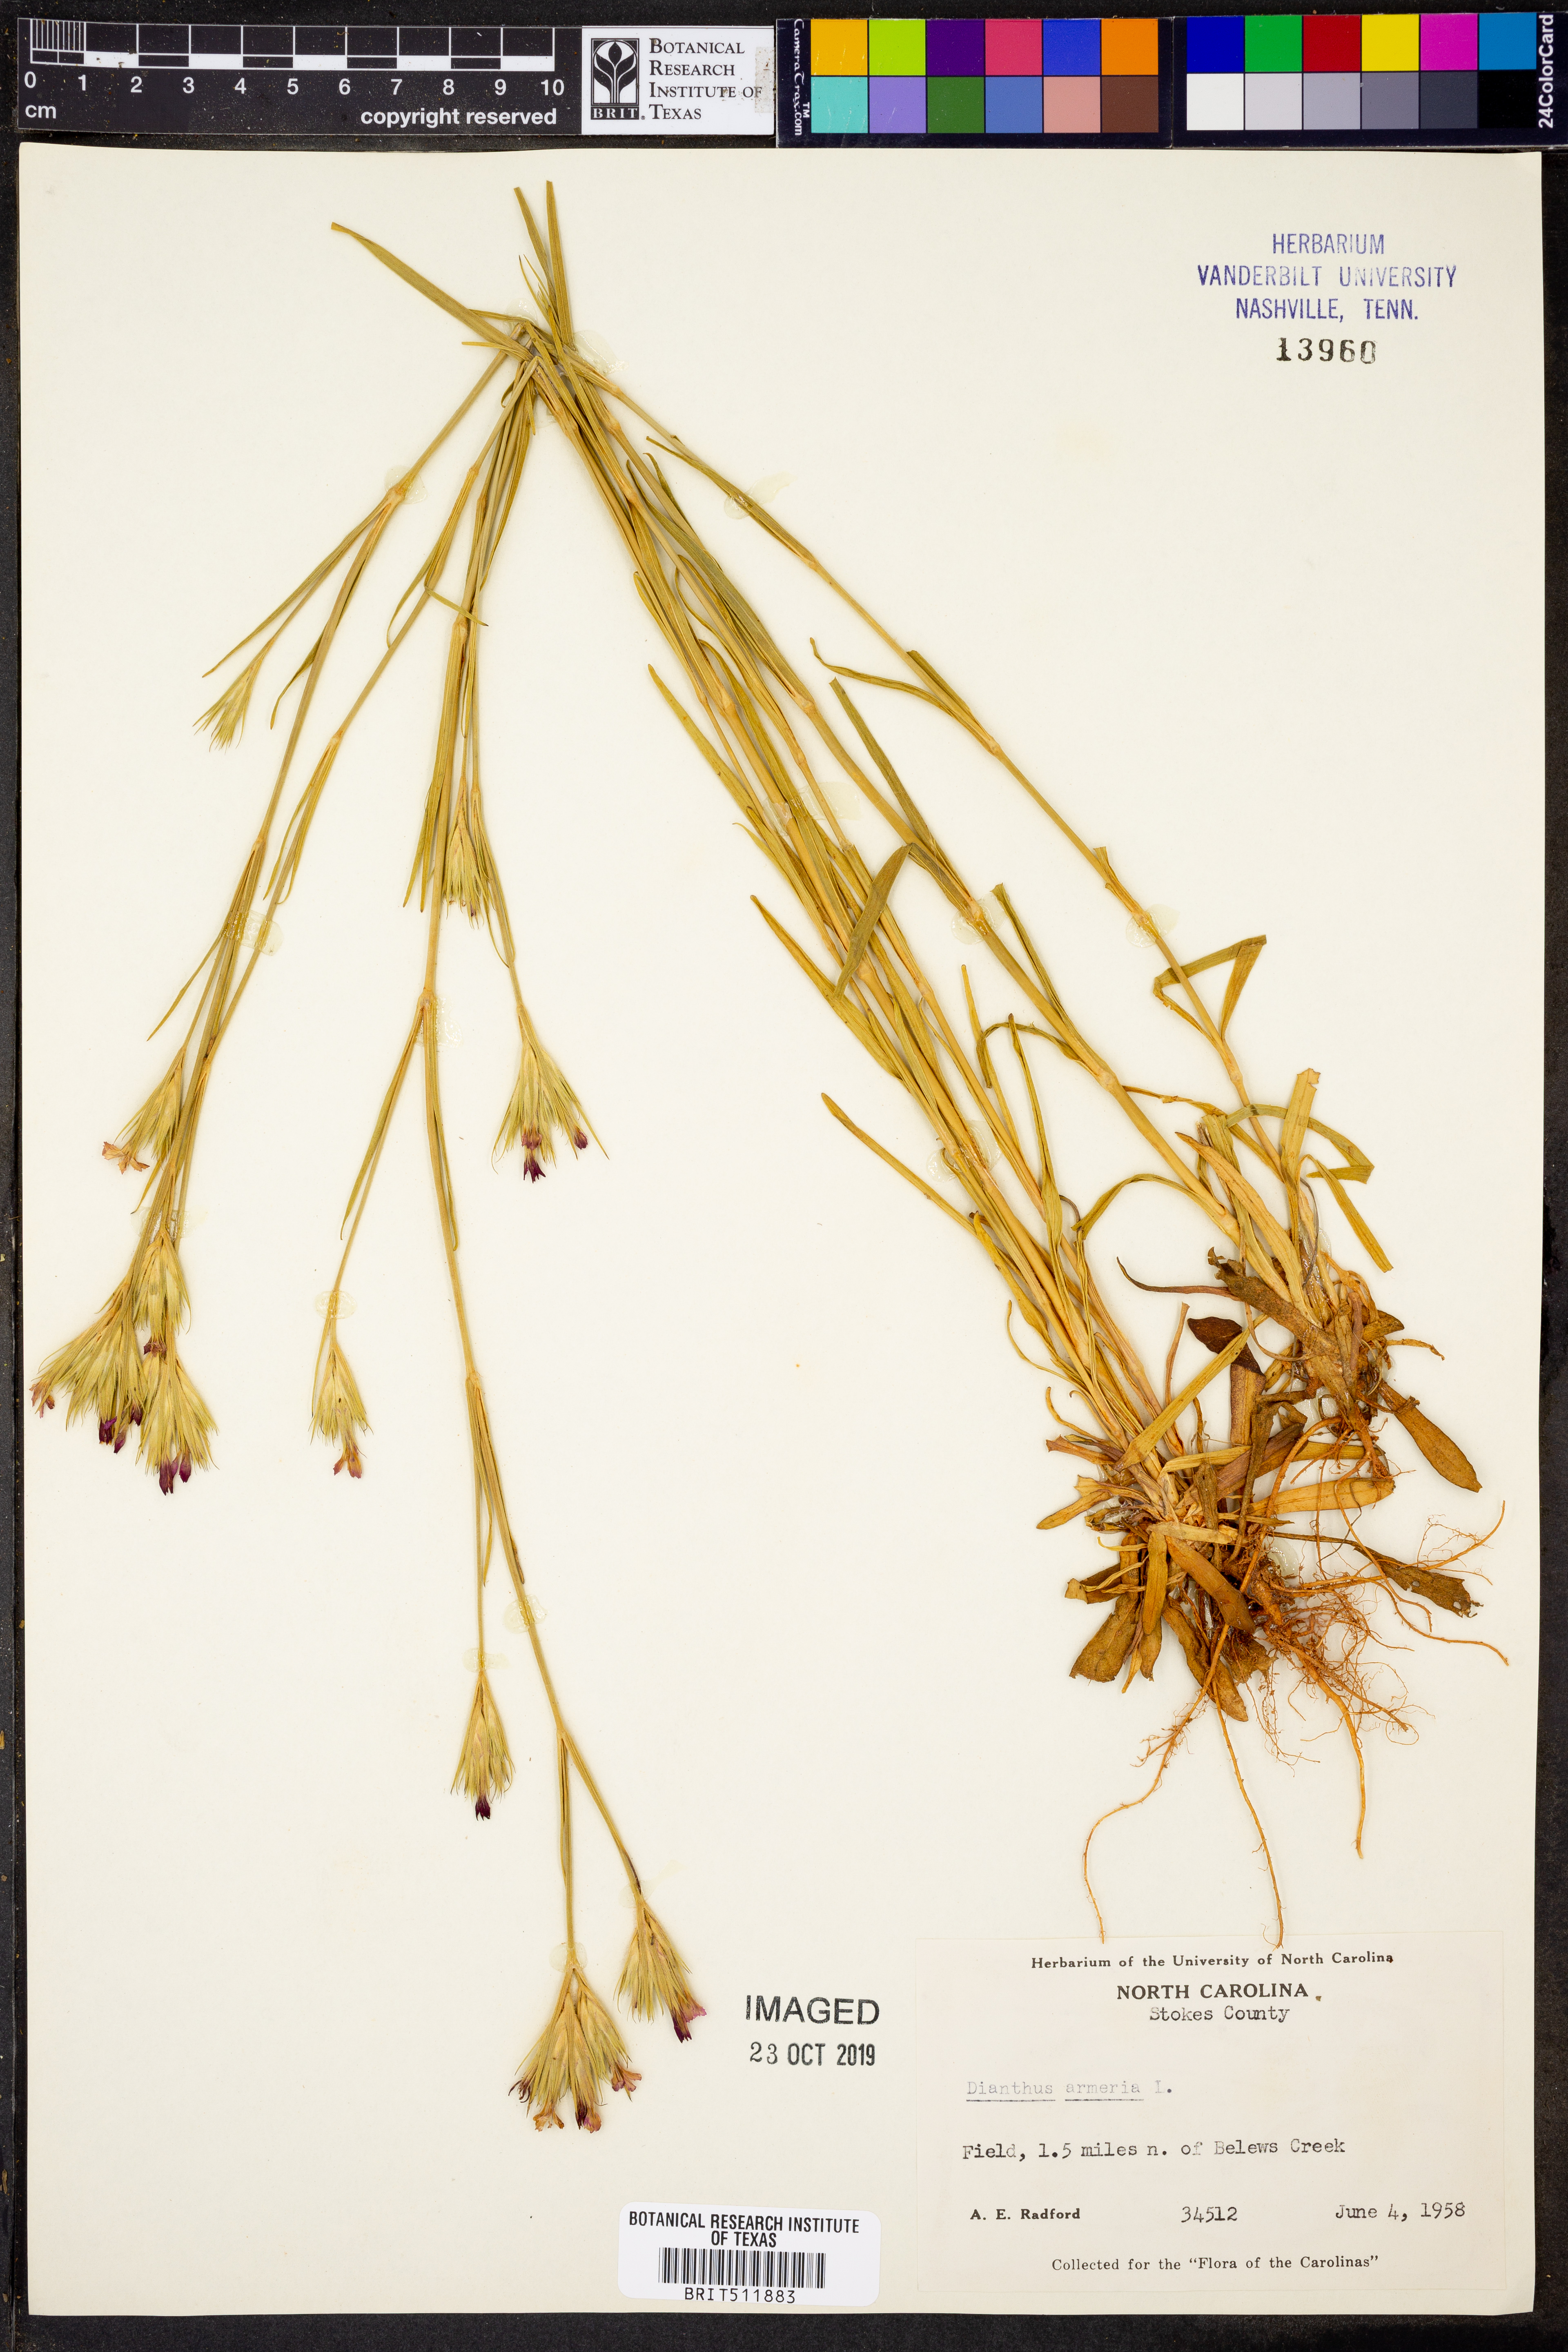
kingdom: Plantae
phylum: Tracheophyta
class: Magnoliopsida
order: Caryophyllales
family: Caryophyllaceae
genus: Dianthus
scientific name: Dianthus armeria
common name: Deptford pink
